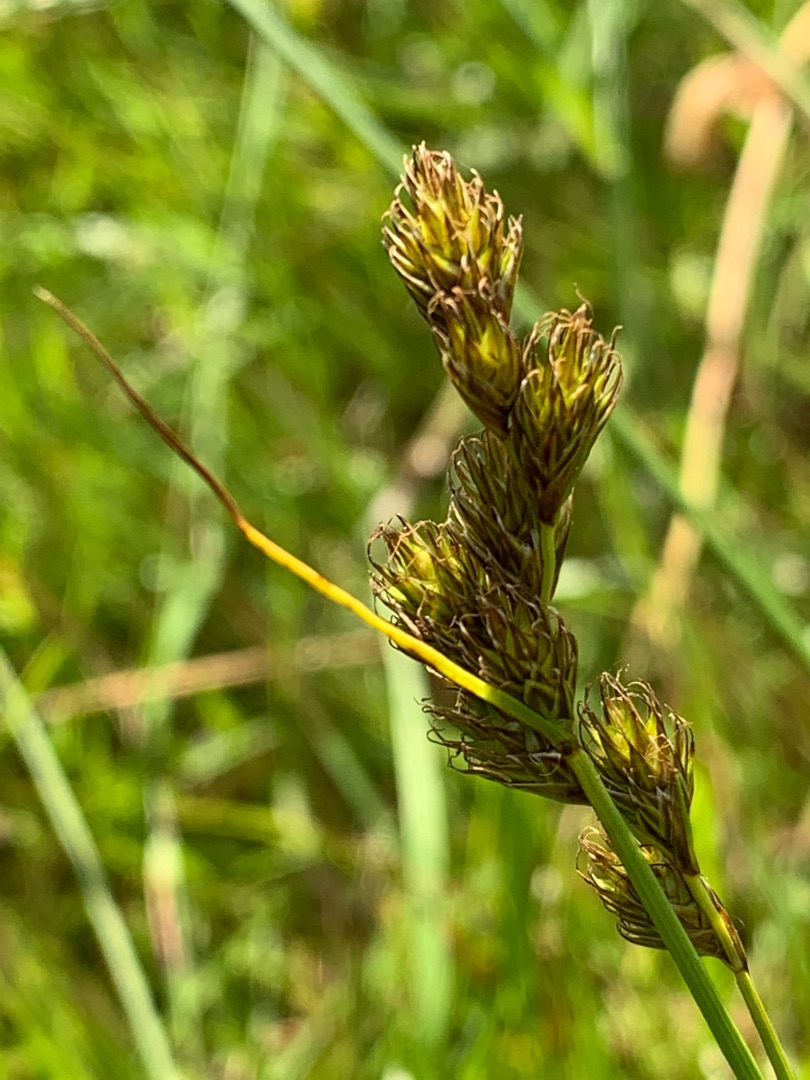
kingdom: Plantae
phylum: Tracheophyta
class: Liliopsida
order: Poales
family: Cyperaceae
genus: Carex
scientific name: Carex leporina
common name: Hare-star
